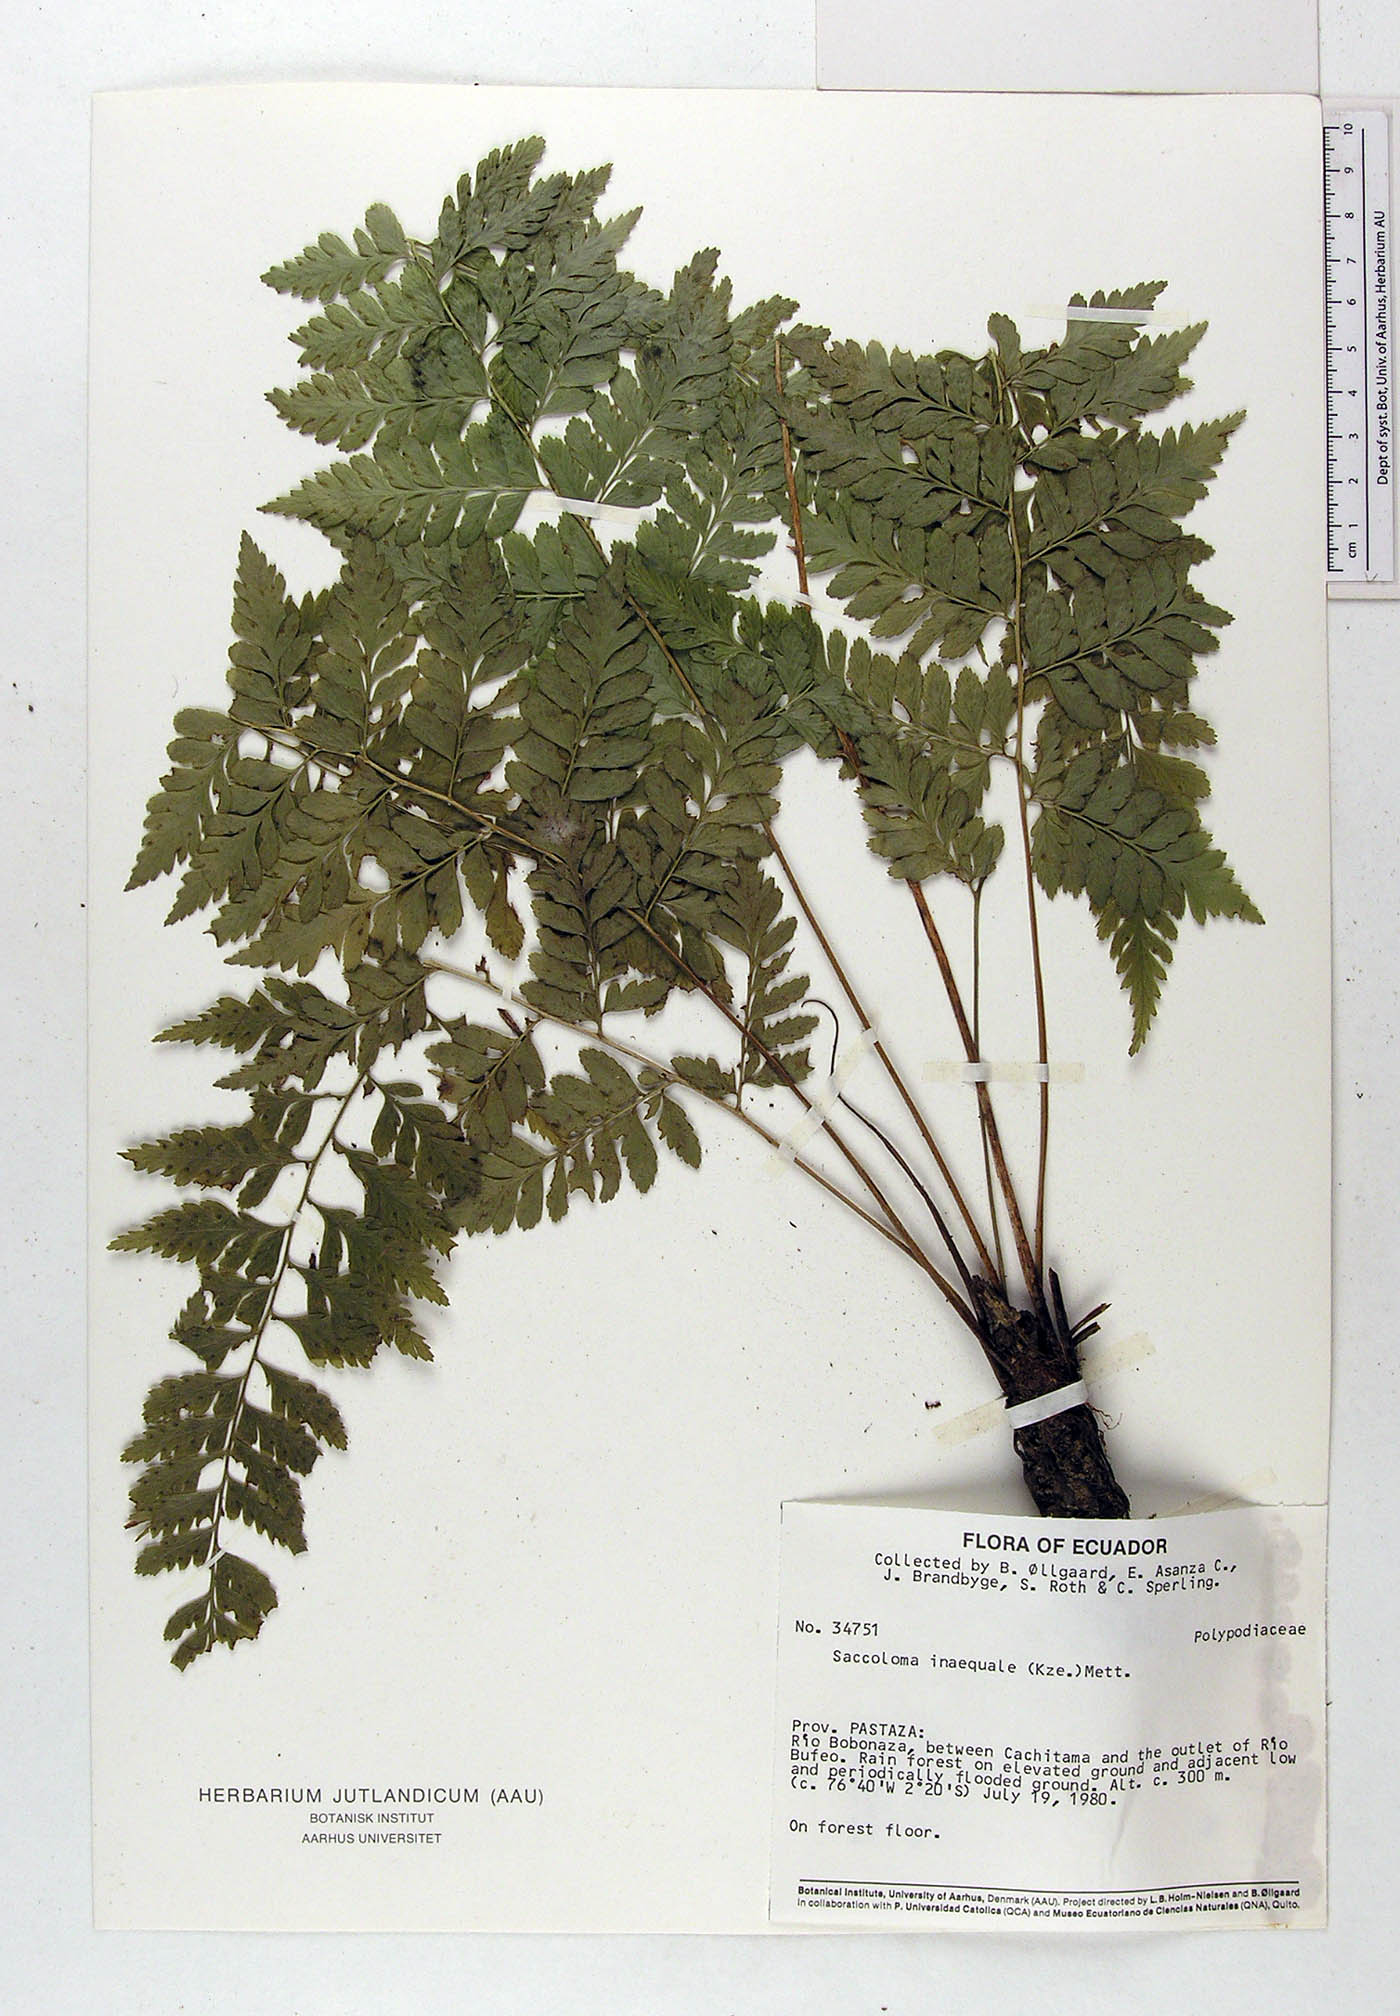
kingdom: Plantae
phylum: Tracheophyta
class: Polypodiopsida
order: Polypodiales
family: Saccolomataceae
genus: Saccoloma
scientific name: Saccoloma inaequale
